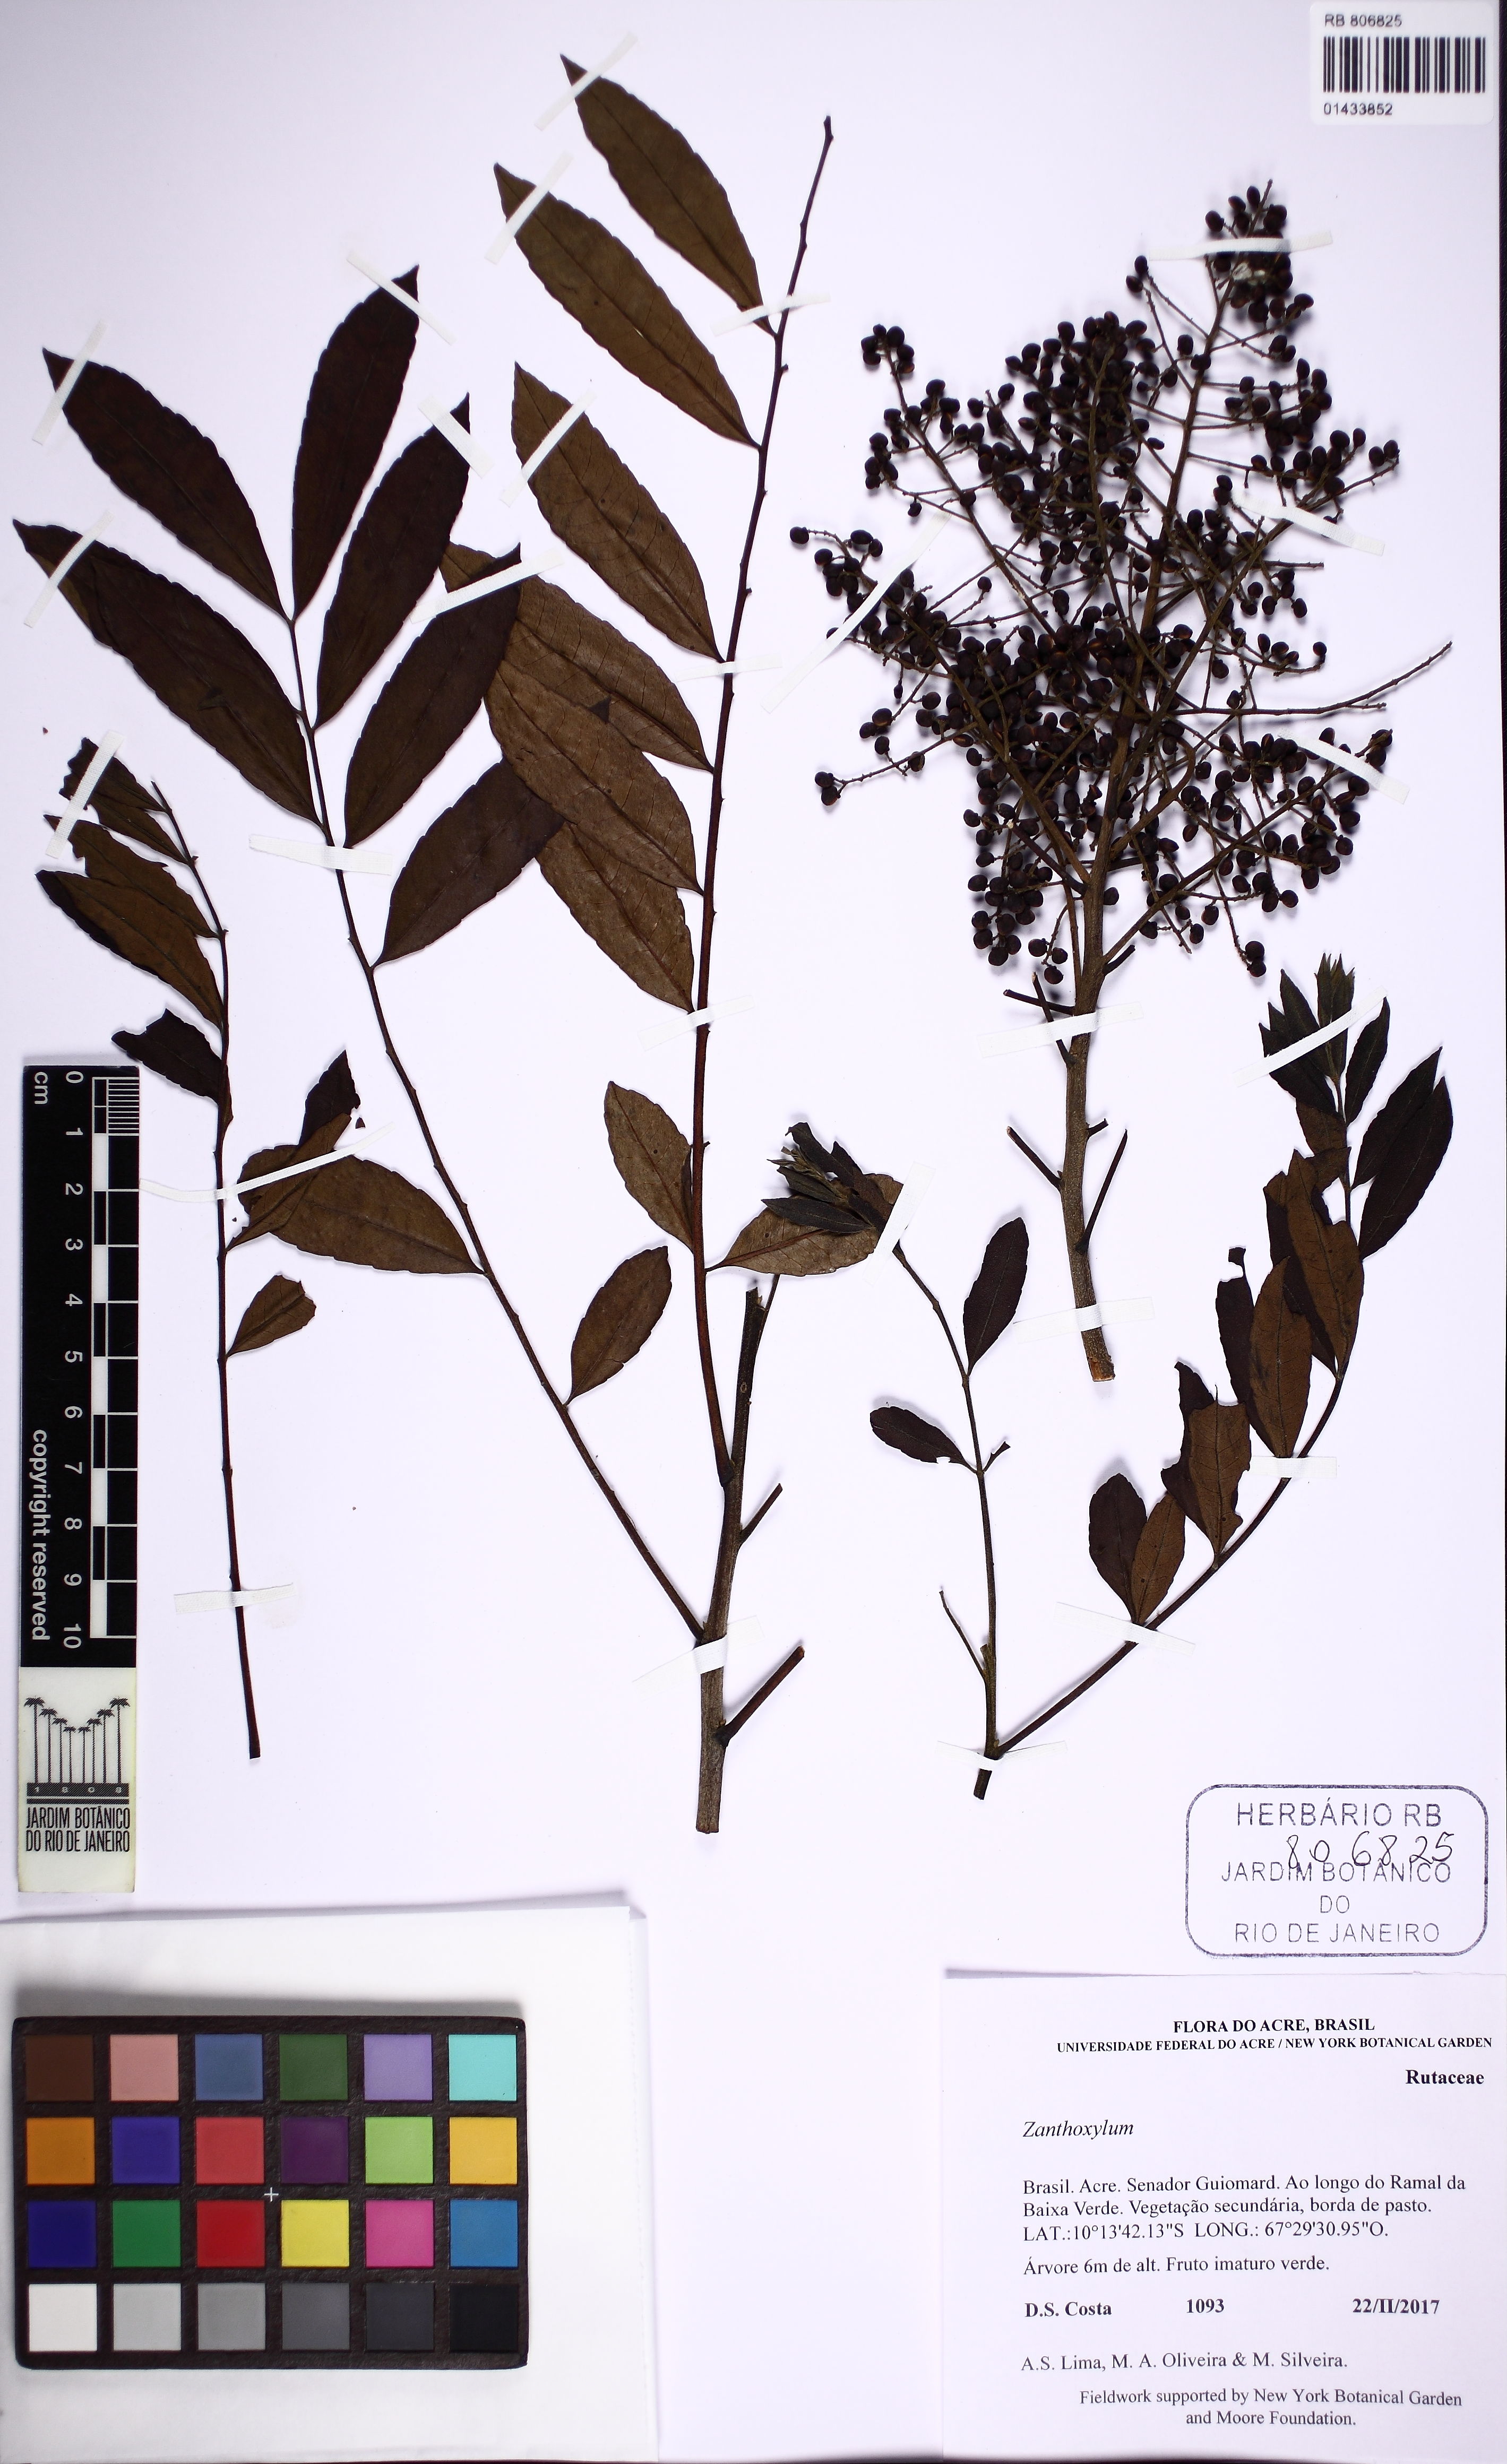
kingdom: Plantae
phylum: Tracheophyta
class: Magnoliopsida
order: Sapindales
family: Rutaceae
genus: Zanthoxylum
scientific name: Zanthoxylum rhoifolium
